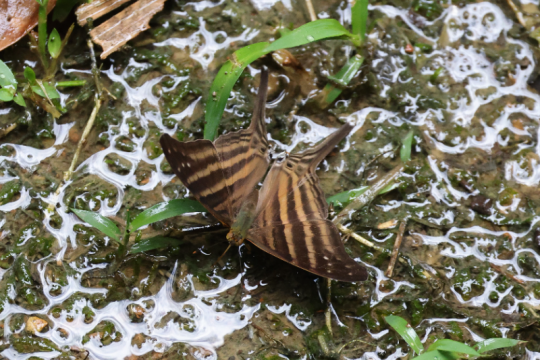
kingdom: Animalia
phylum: Arthropoda
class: Insecta
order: Lepidoptera
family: Nymphalidae
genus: Dryadula
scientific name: Dryadula phaetusa
